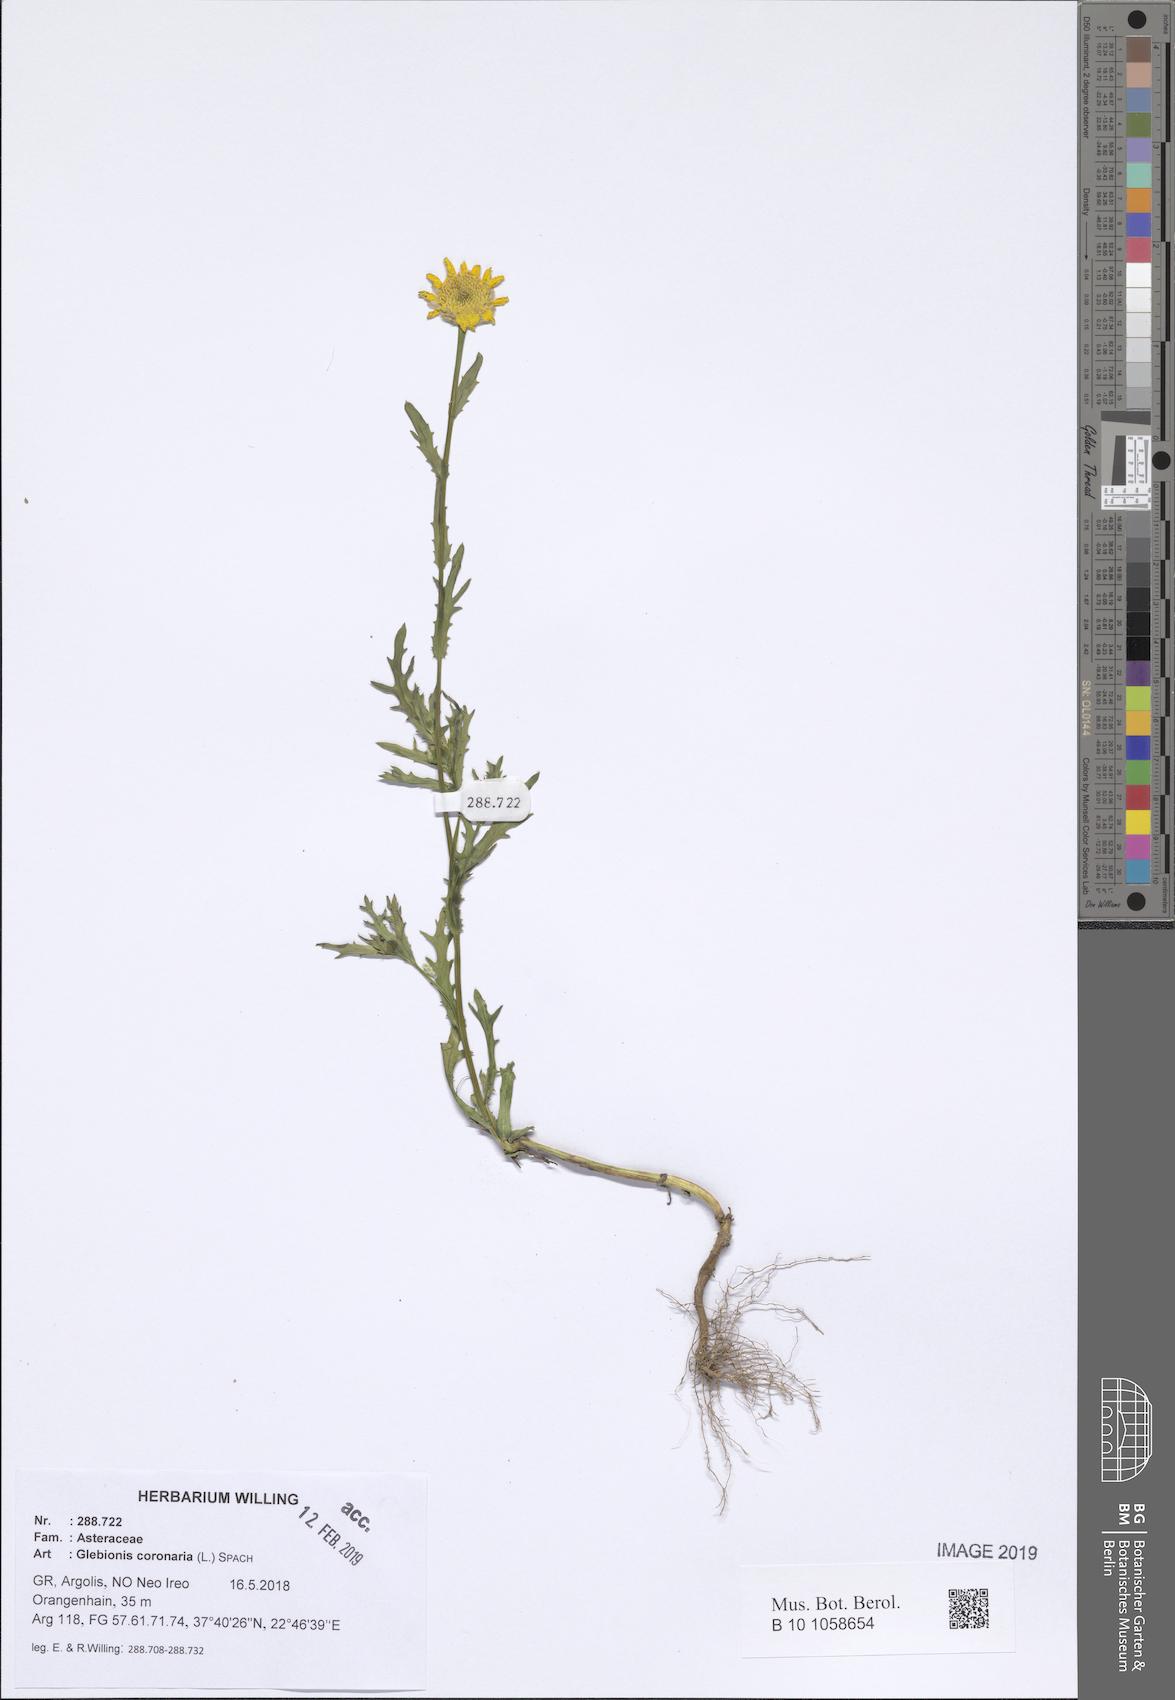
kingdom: Plantae
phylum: Tracheophyta
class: Magnoliopsida
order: Asterales
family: Asteraceae
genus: Glebionis
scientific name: Glebionis coronaria
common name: Crowndaisy
